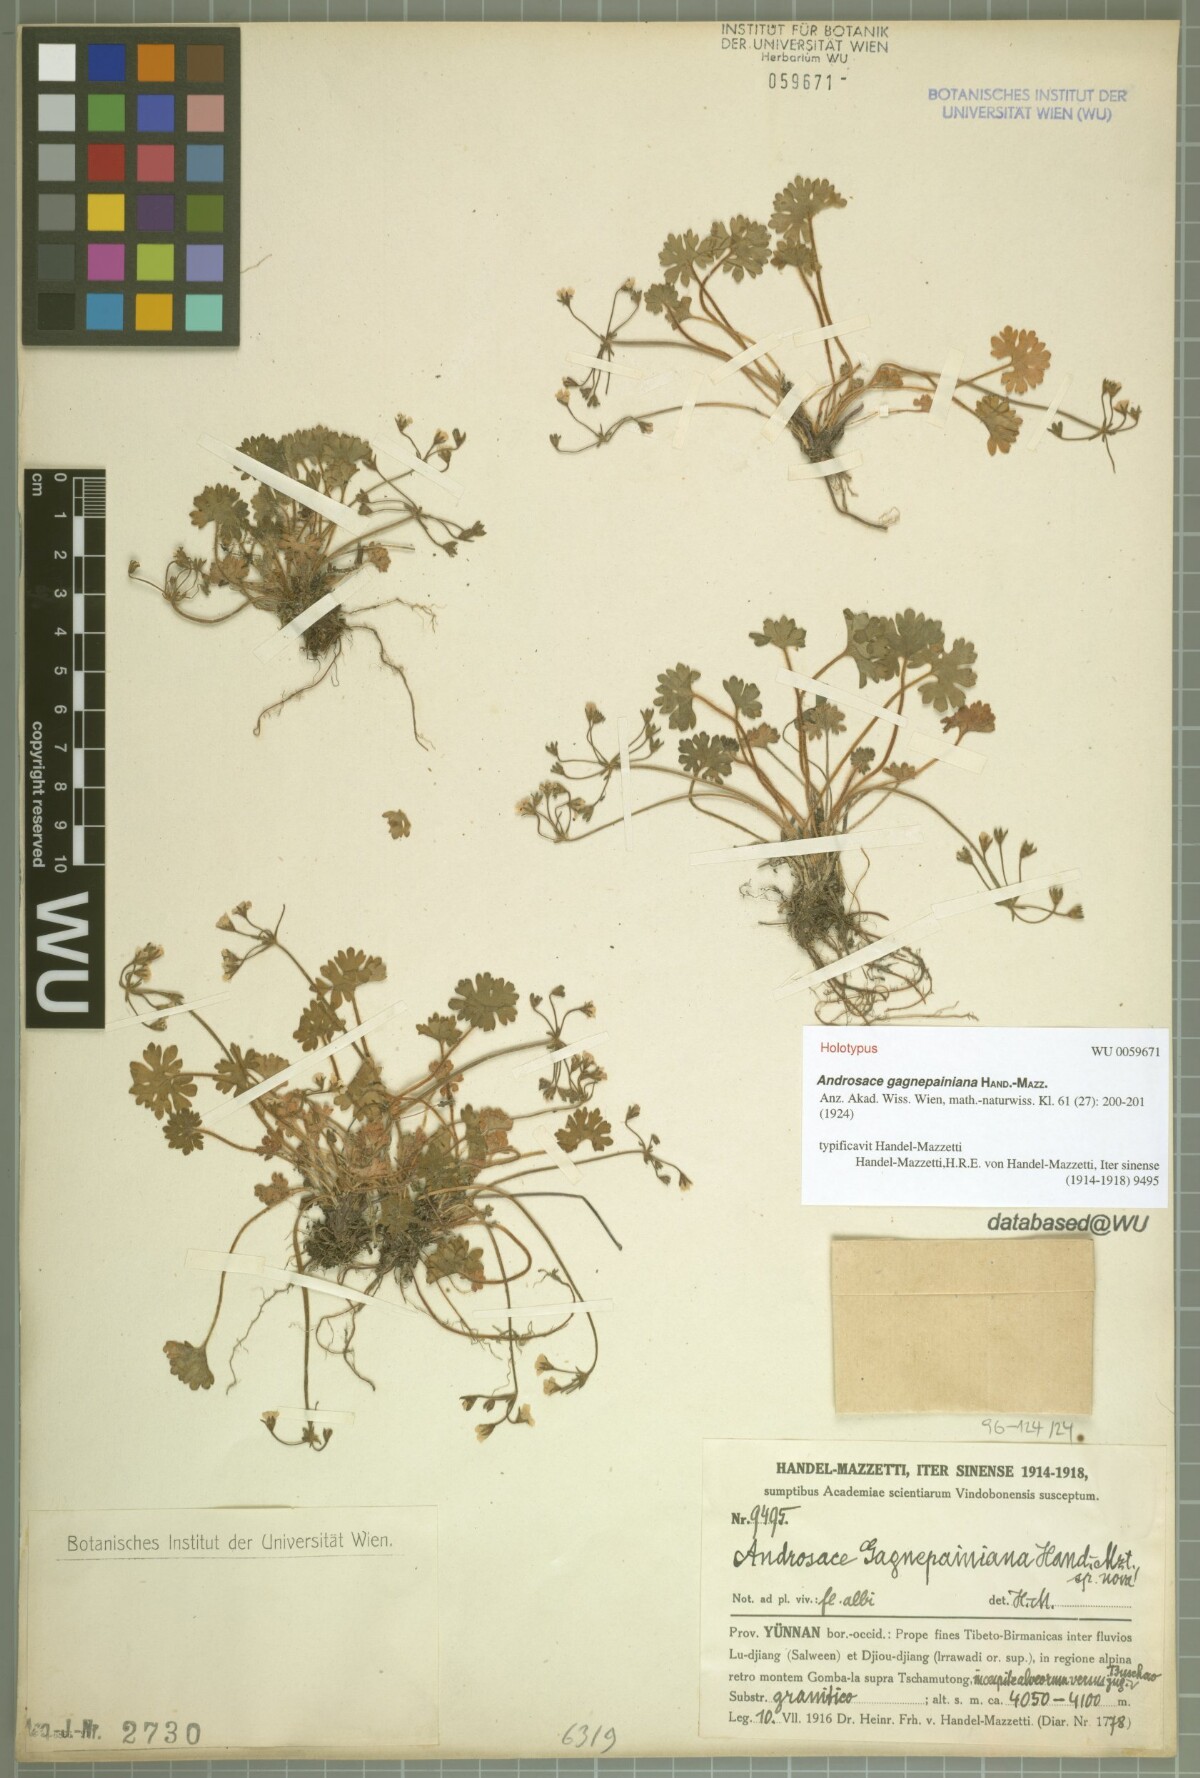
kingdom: Plantae
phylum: Tracheophyta
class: Magnoliopsida
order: Ericales
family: Primulaceae
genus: Androsace
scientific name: Androsace gagnepainiana
